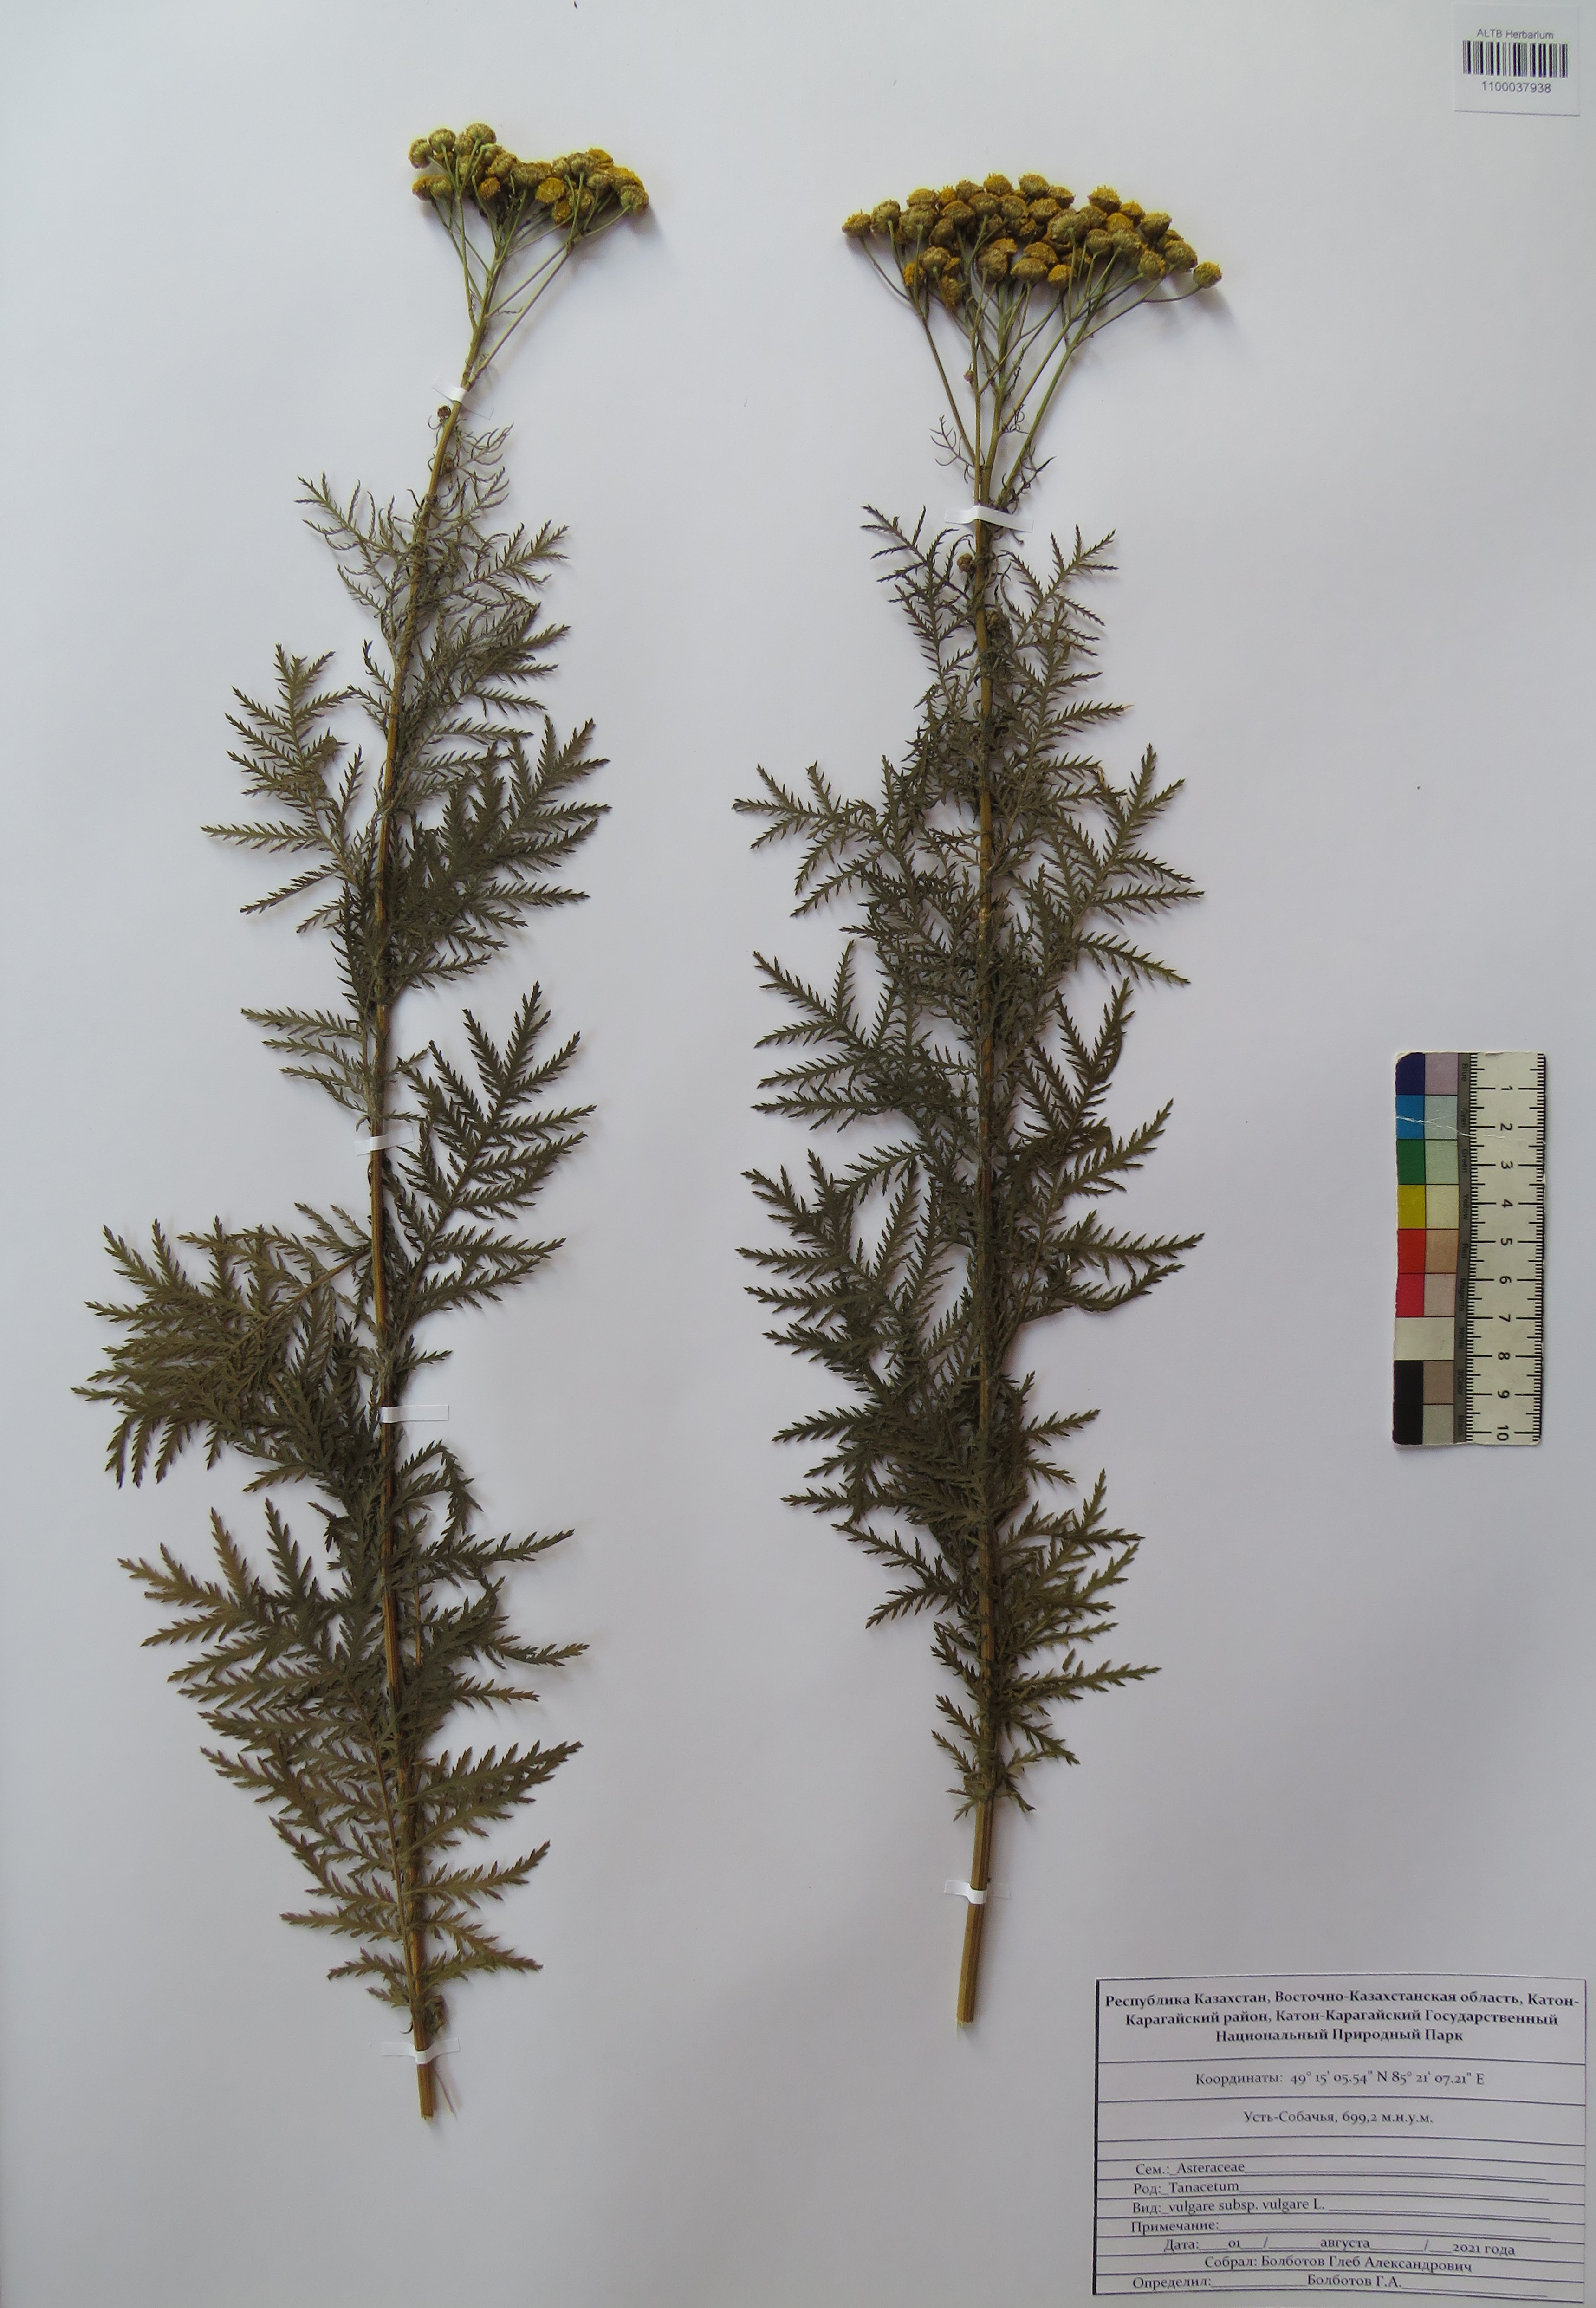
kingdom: Plantae
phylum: Tracheophyta
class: Magnoliopsida
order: Asterales
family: Asteraceae
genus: Tanacetum
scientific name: Tanacetum vulgare
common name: Common tansy
